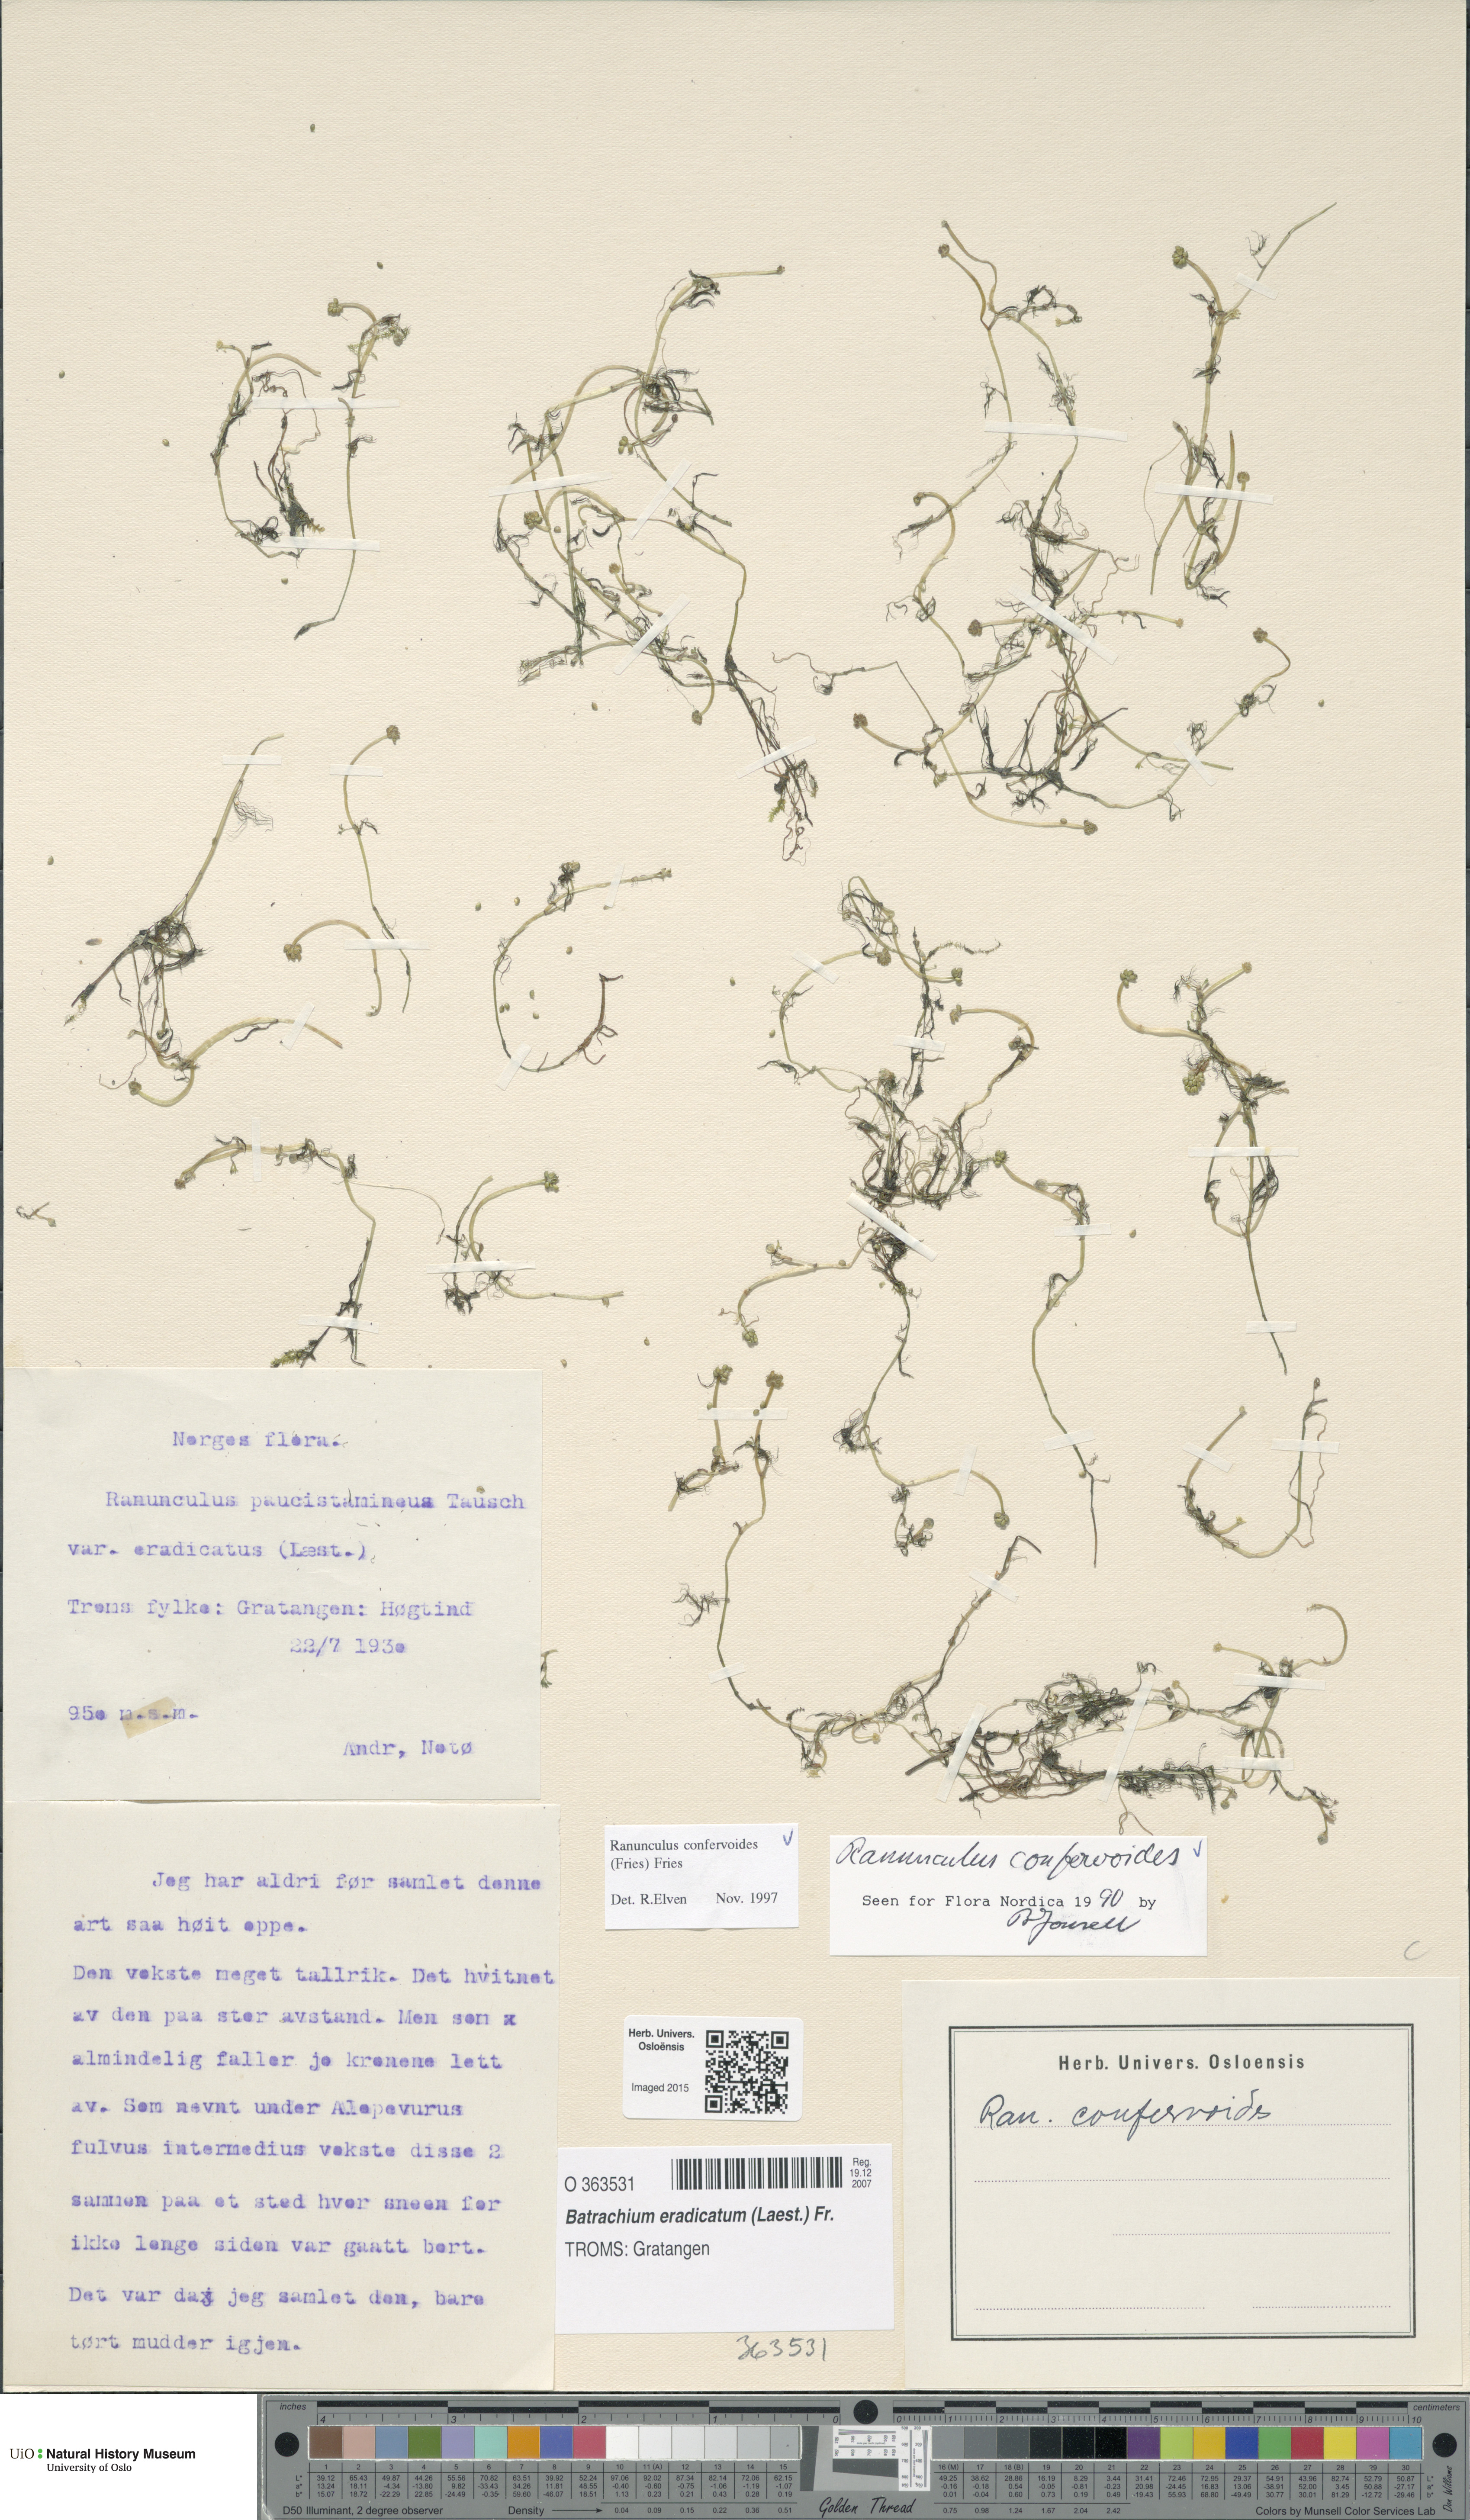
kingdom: Plantae
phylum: Tracheophyta
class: Magnoliopsida
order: Ranunculales
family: Ranunculaceae
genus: Ranunculus
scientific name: Ranunculus confervoides
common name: Delicate buttercup
